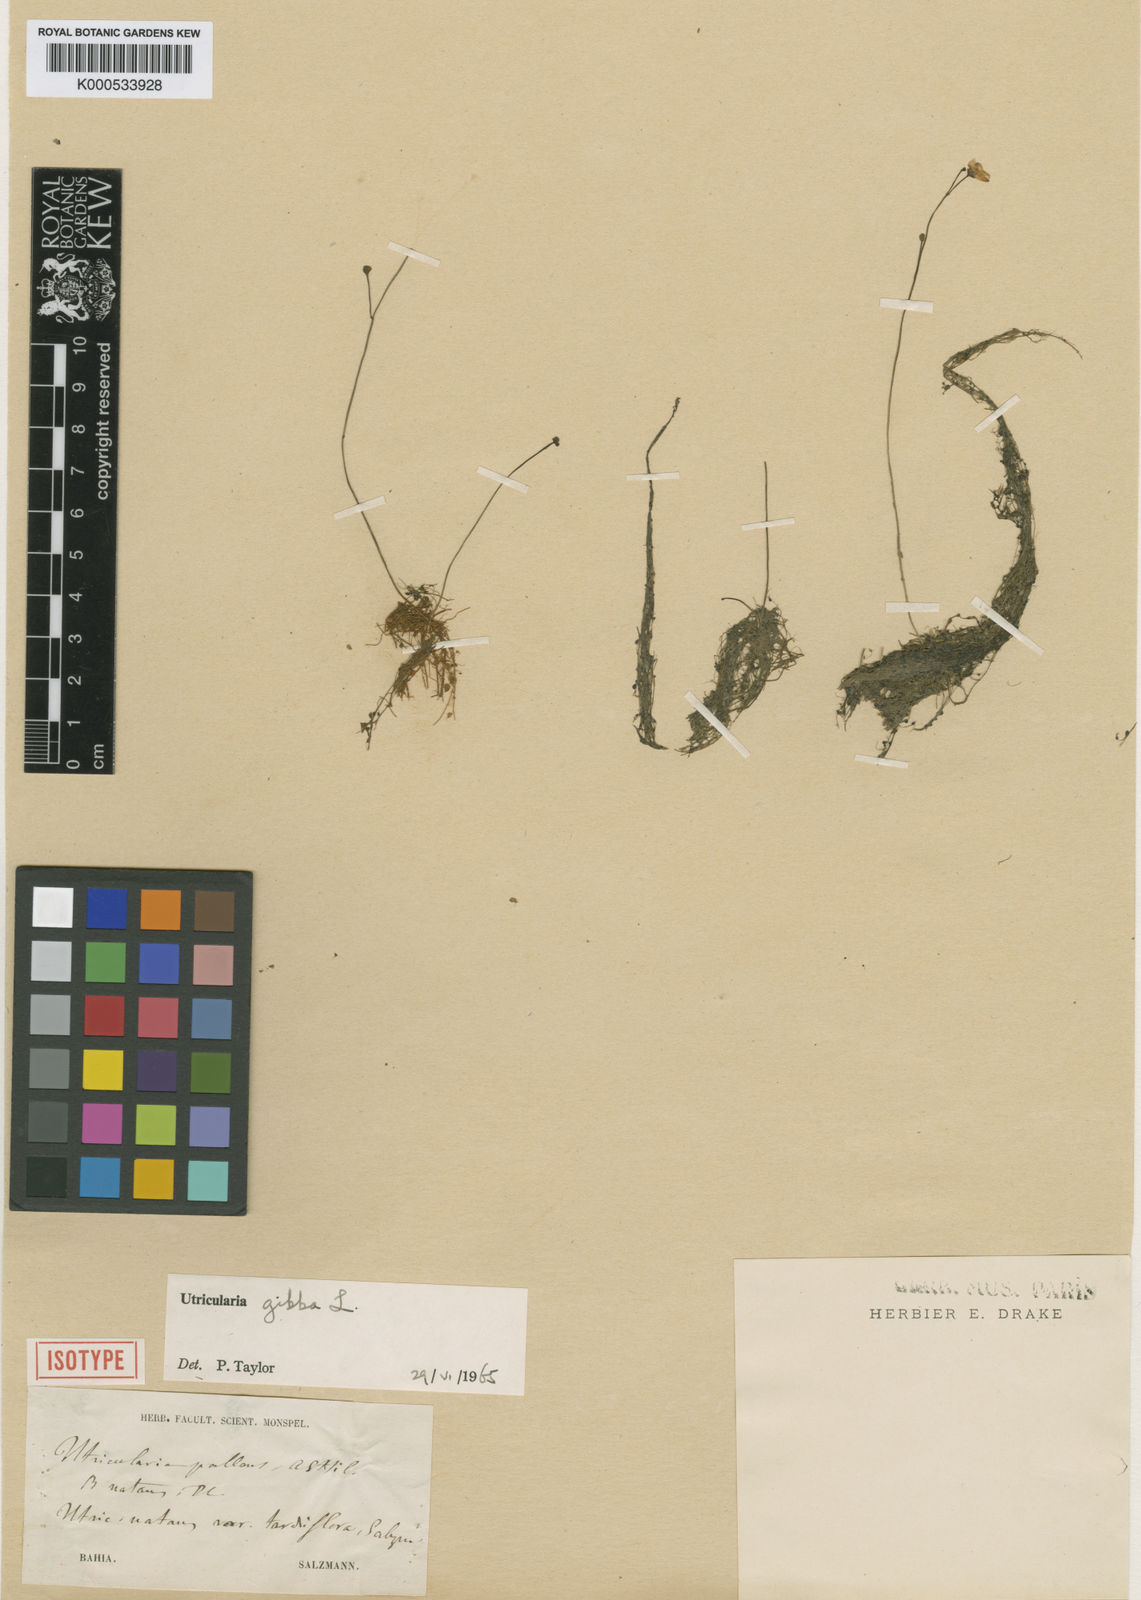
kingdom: Plantae
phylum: Tracheophyta
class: Magnoliopsida
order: Lamiales
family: Lentibulariaceae
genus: Utricularia
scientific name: Utricularia gibba
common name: Humped bladderwort
